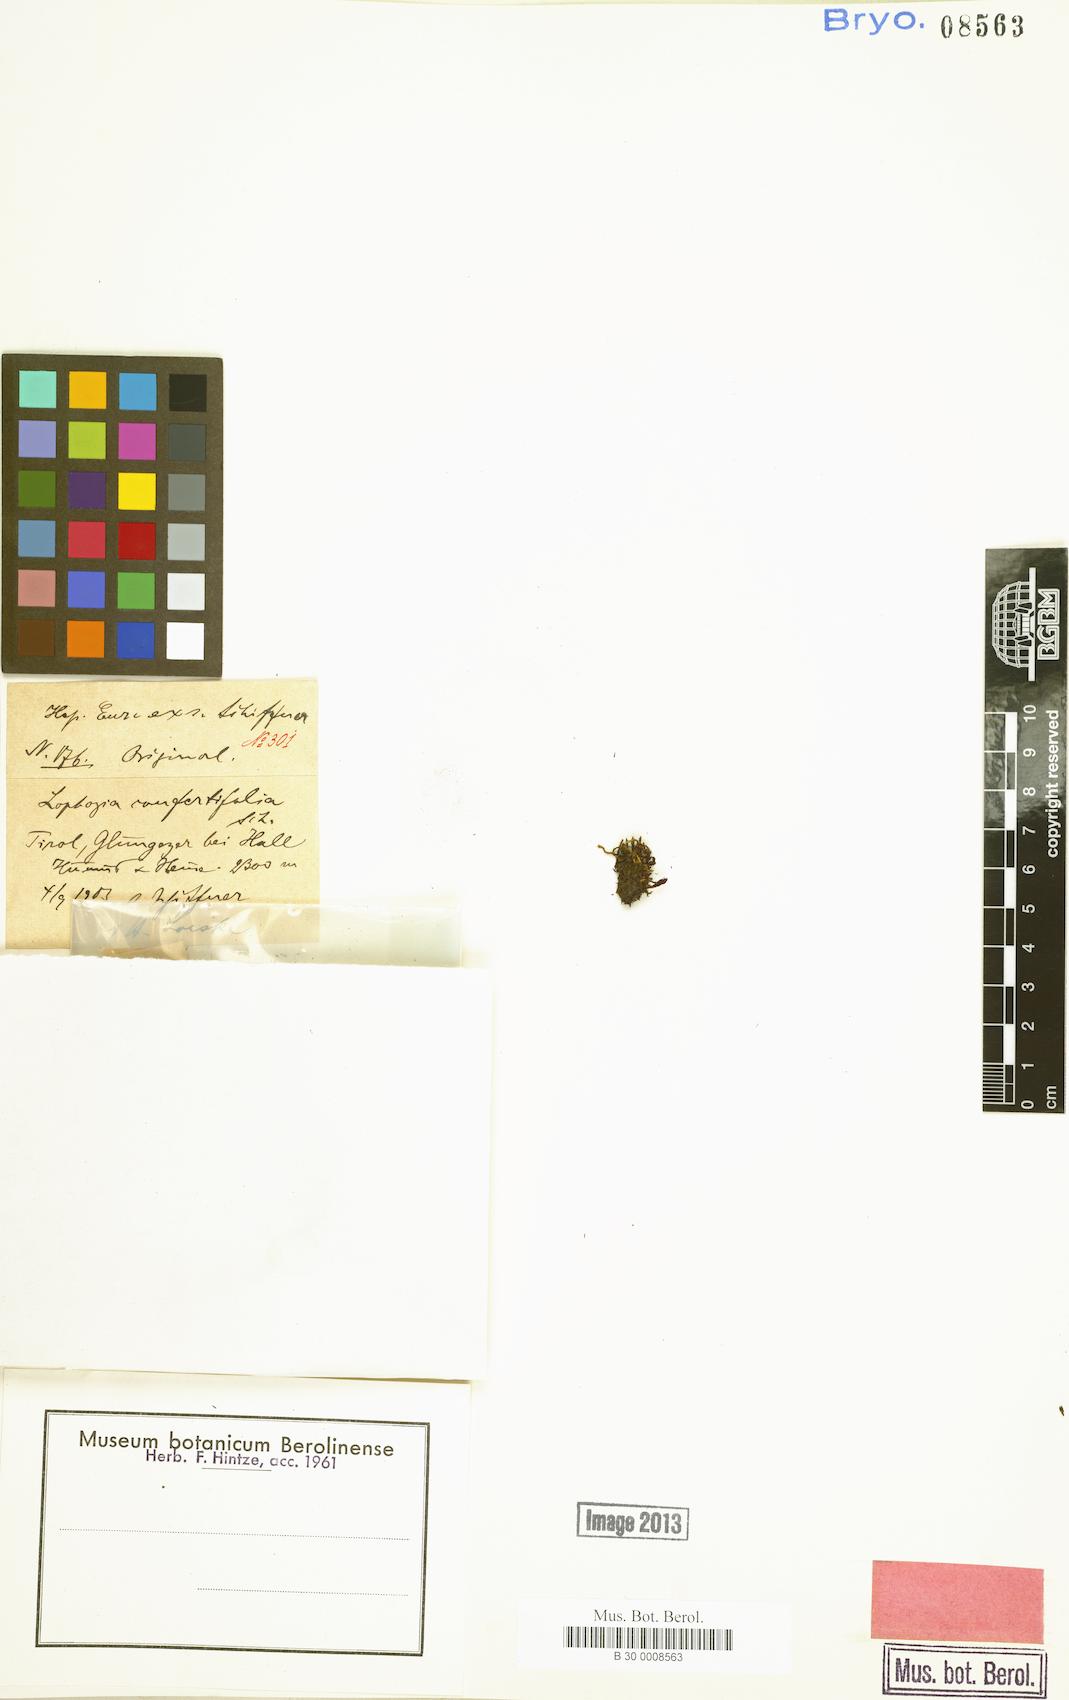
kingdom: Plantae
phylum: Marchantiophyta
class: Jungermanniopsida
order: Jungermanniales
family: Lophoziaceae
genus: Lophozia
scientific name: Lophozia murmanica
